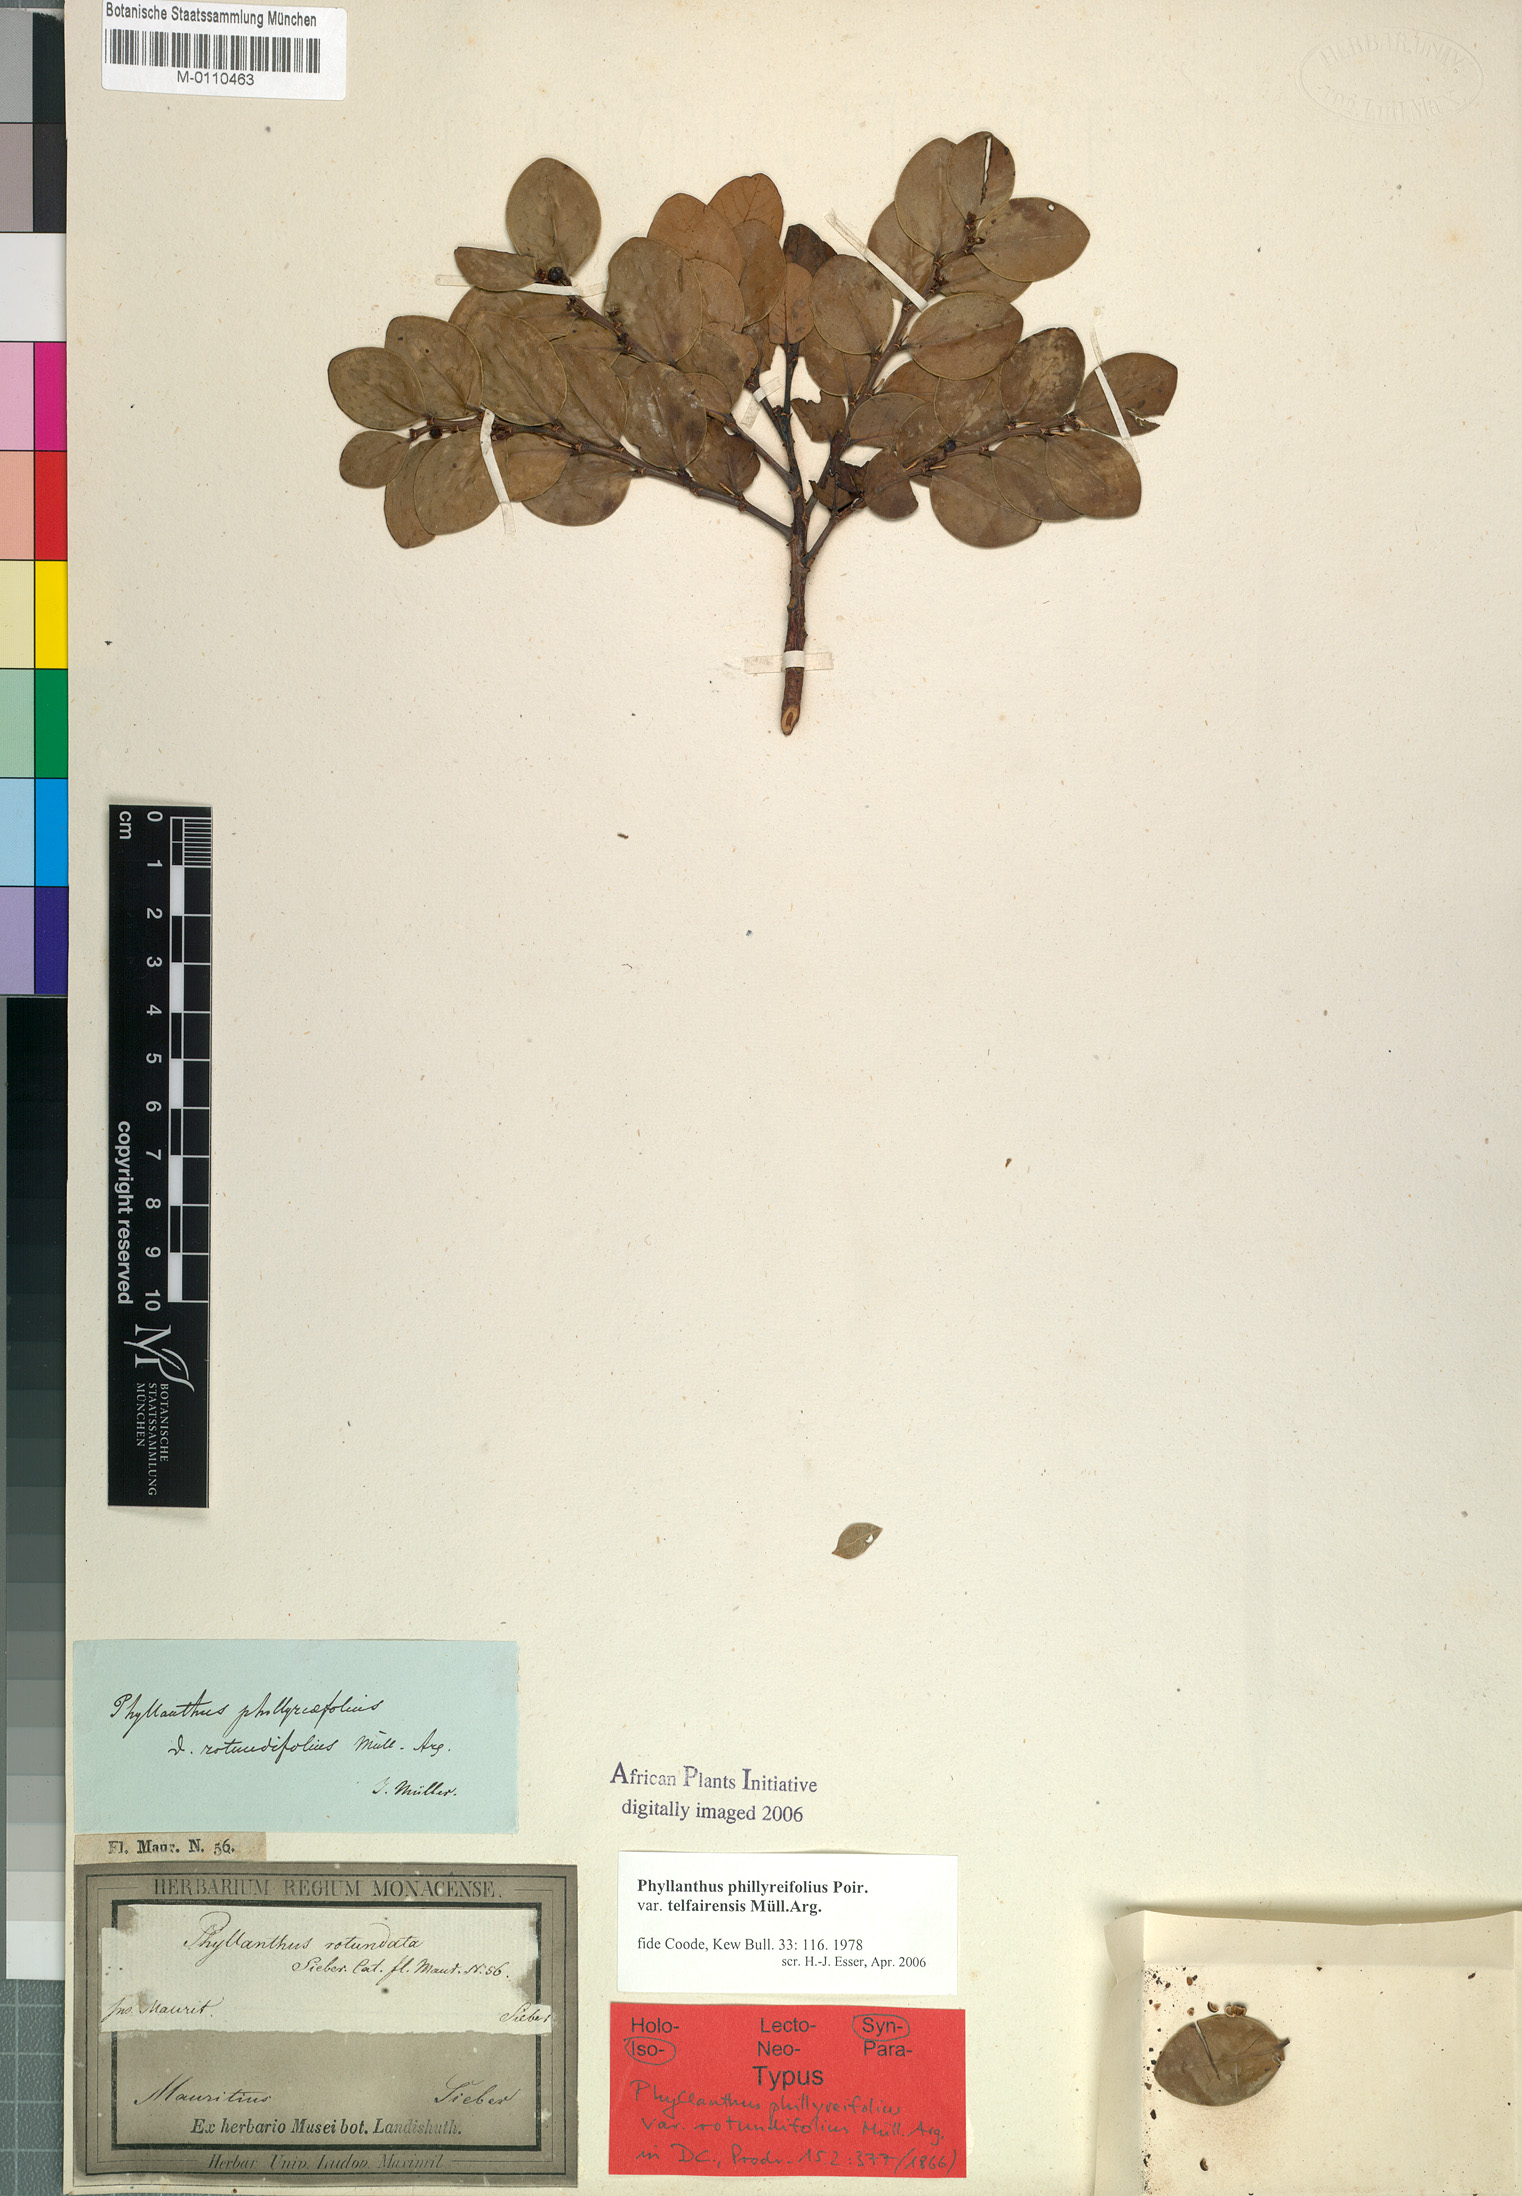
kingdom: Plantae
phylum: Tracheophyta
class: Magnoliopsida
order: Malpighiales
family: Phyllanthaceae
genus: Phyllanthus
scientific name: Phyllanthus phillyreifolius
